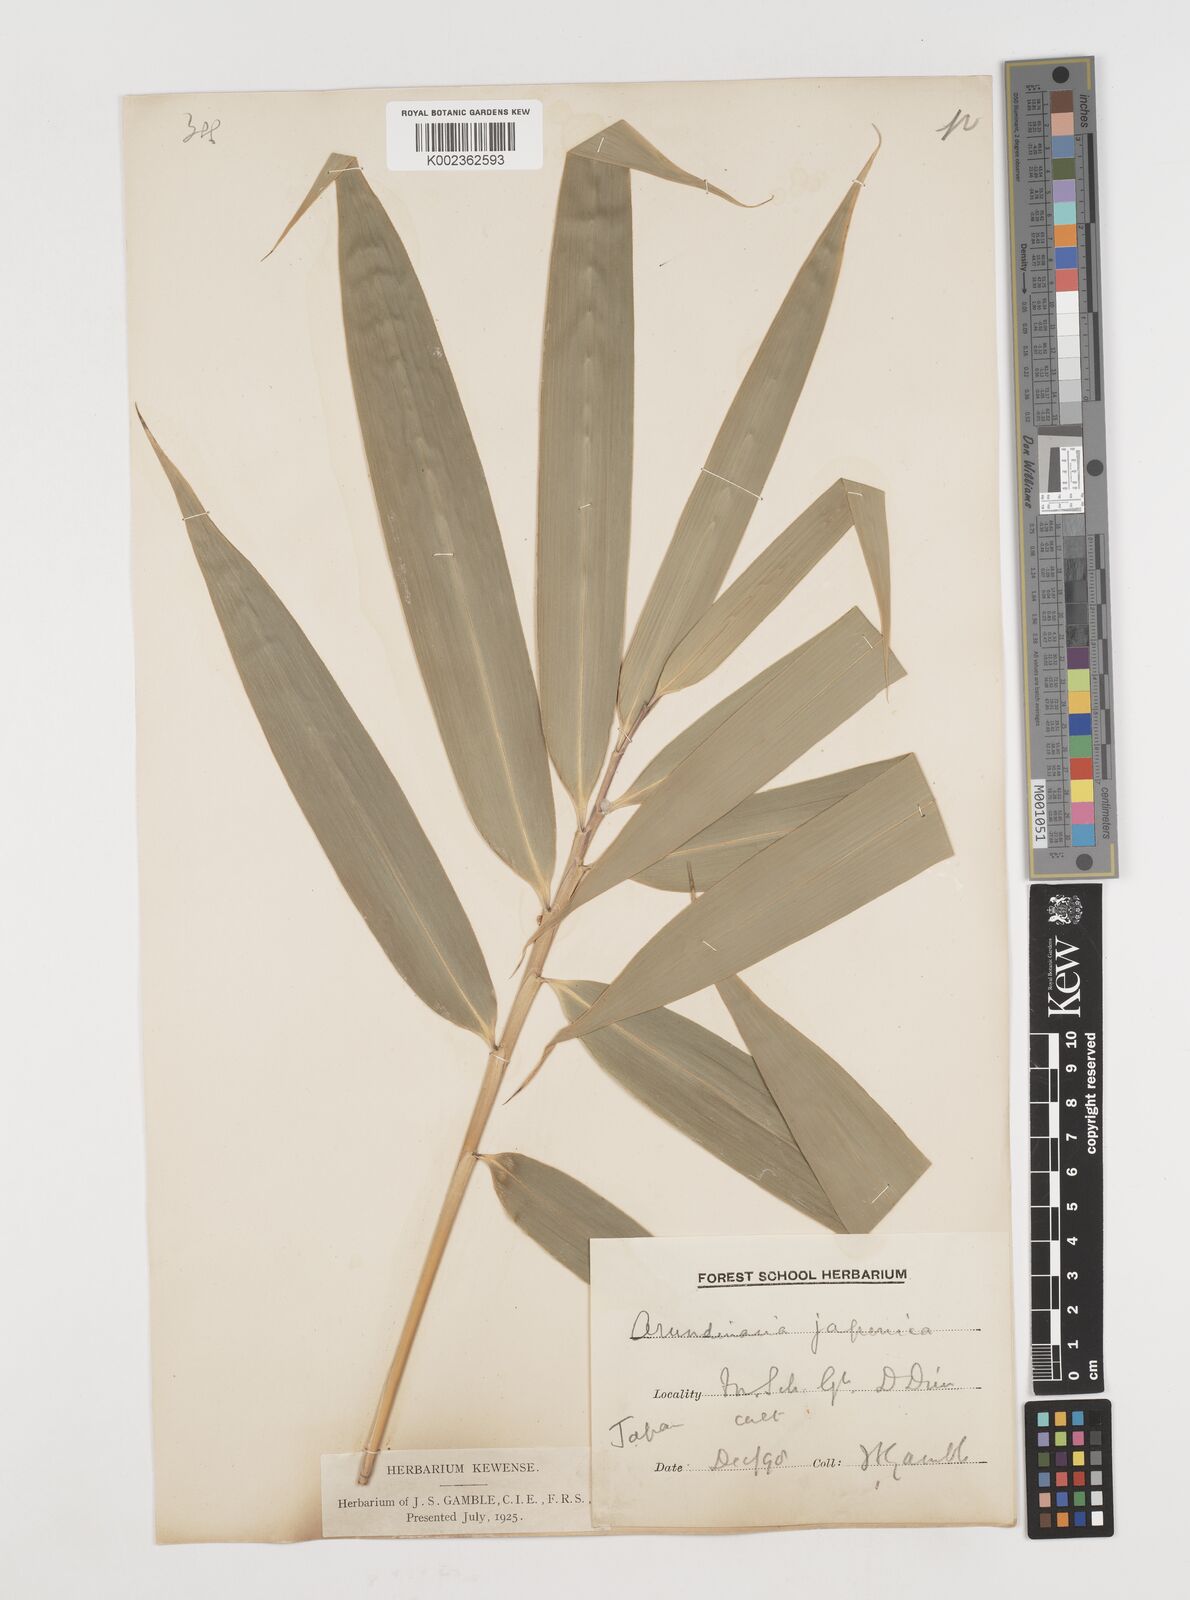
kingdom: Plantae
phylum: Tracheophyta
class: Liliopsida
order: Poales
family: Poaceae
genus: Pseudosasa
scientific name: Pseudosasa japonica
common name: Arrow bamboo
